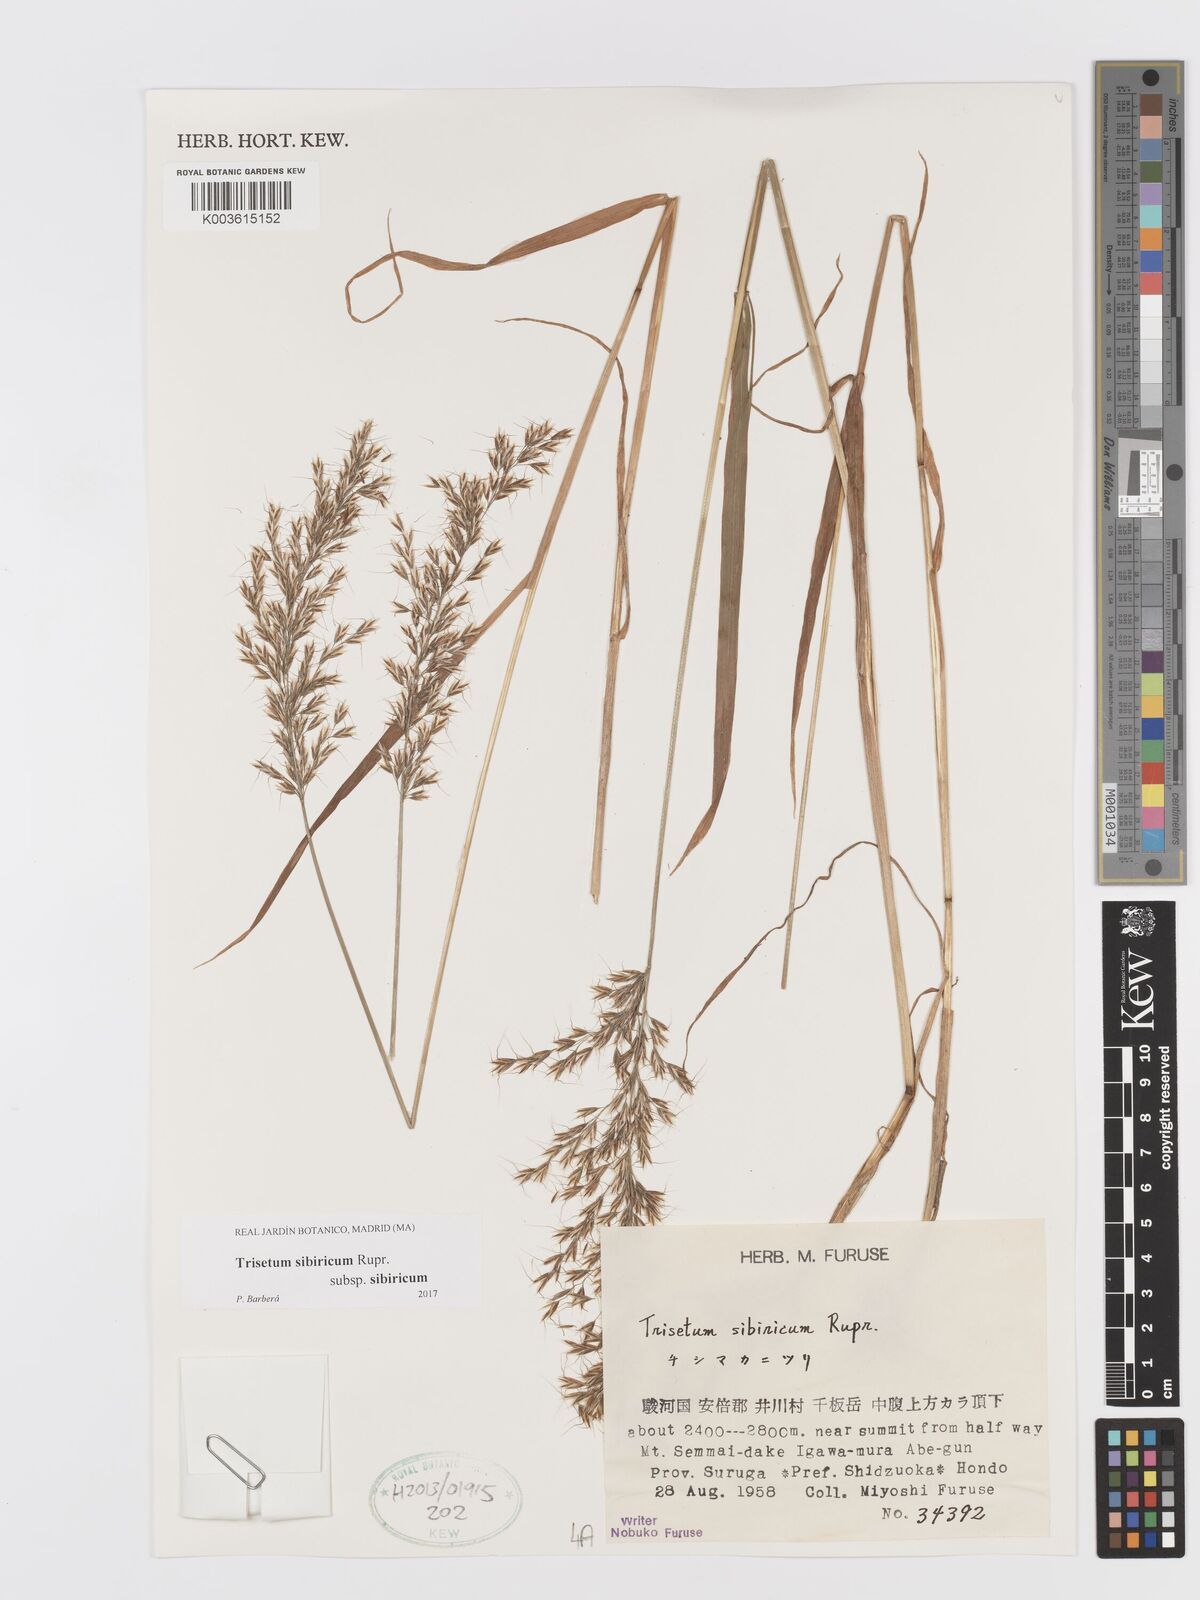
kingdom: Plantae
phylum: Tracheophyta
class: Liliopsida
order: Poales
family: Poaceae
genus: Sibirotrisetum
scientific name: Sibirotrisetum sibiricum
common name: Siberian false oat
